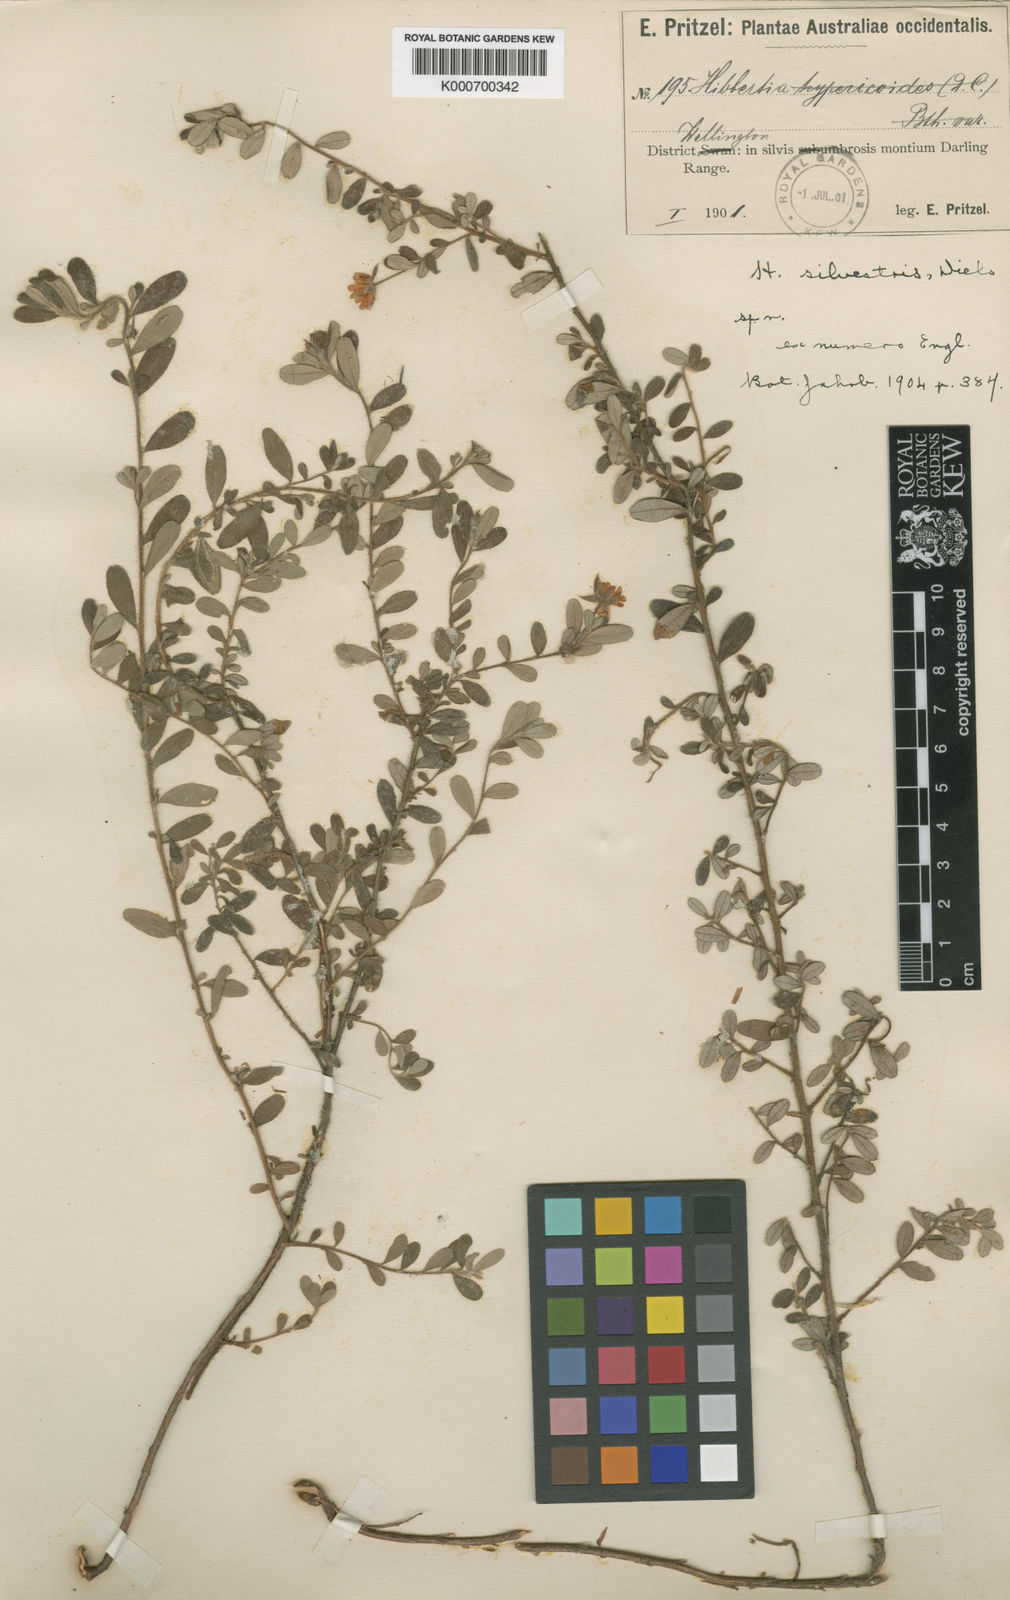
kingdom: Plantae
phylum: Tracheophyta
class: Magnoliopsida
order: Dilleniales
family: Dilleniaceae
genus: Hibbertia
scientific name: Hibbertia silvestris
